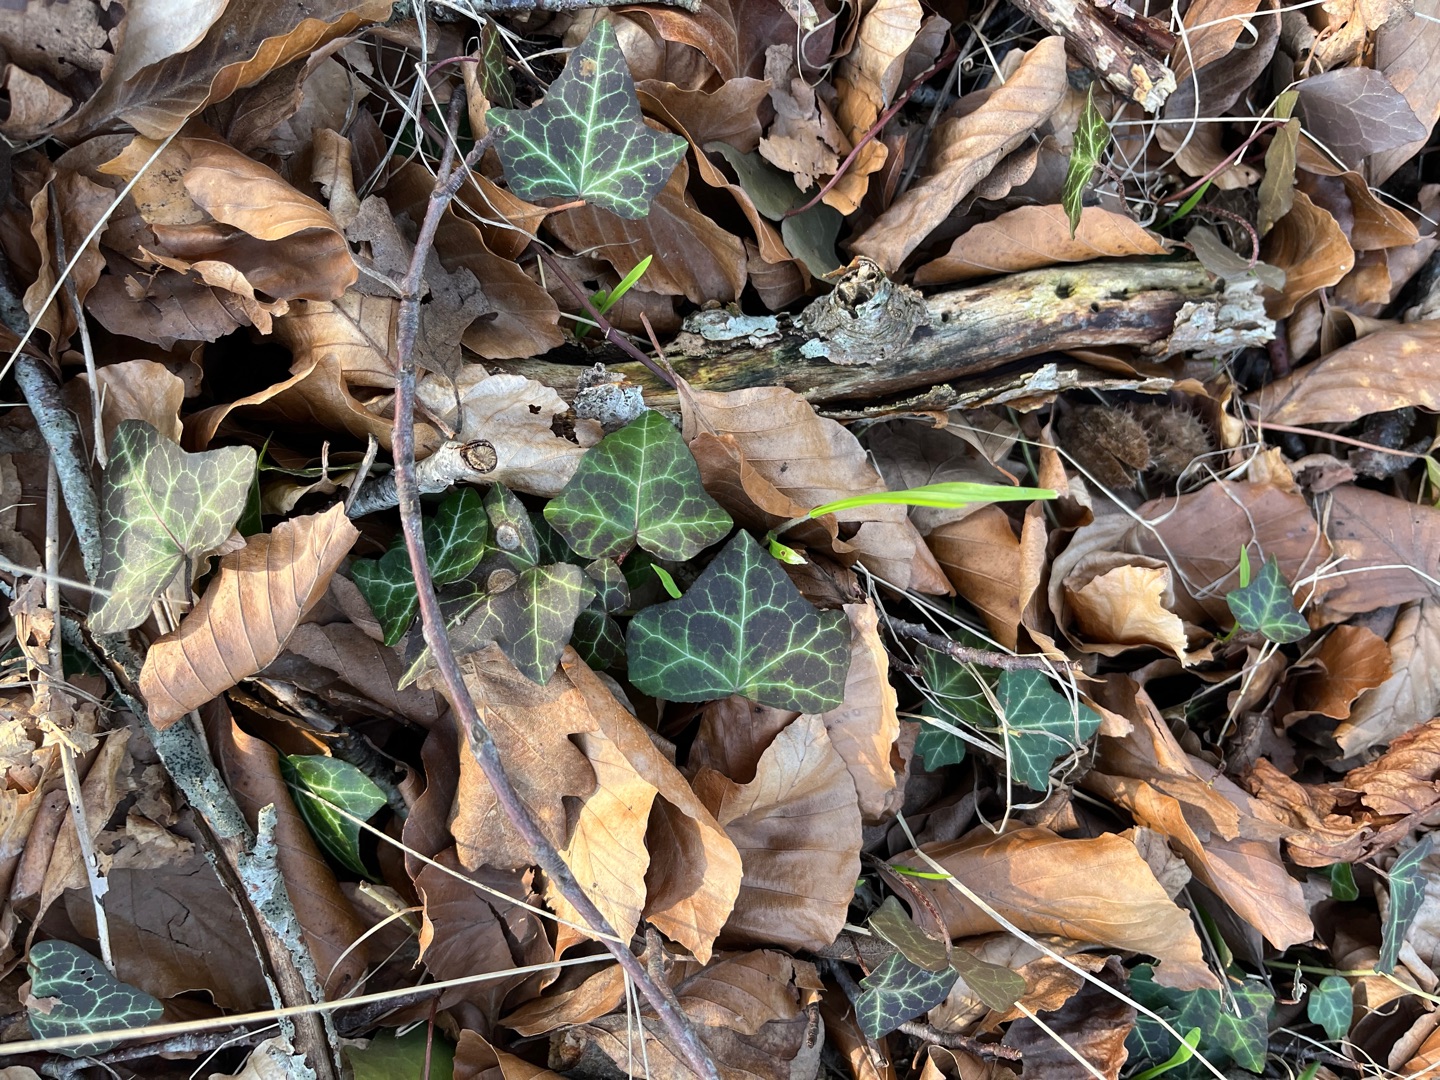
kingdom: Plantae
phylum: Tracheophyta
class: Magnoliopsida
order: Apiales
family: Araliaceae
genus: Hedera
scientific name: Hedera helix
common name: Vedbend
